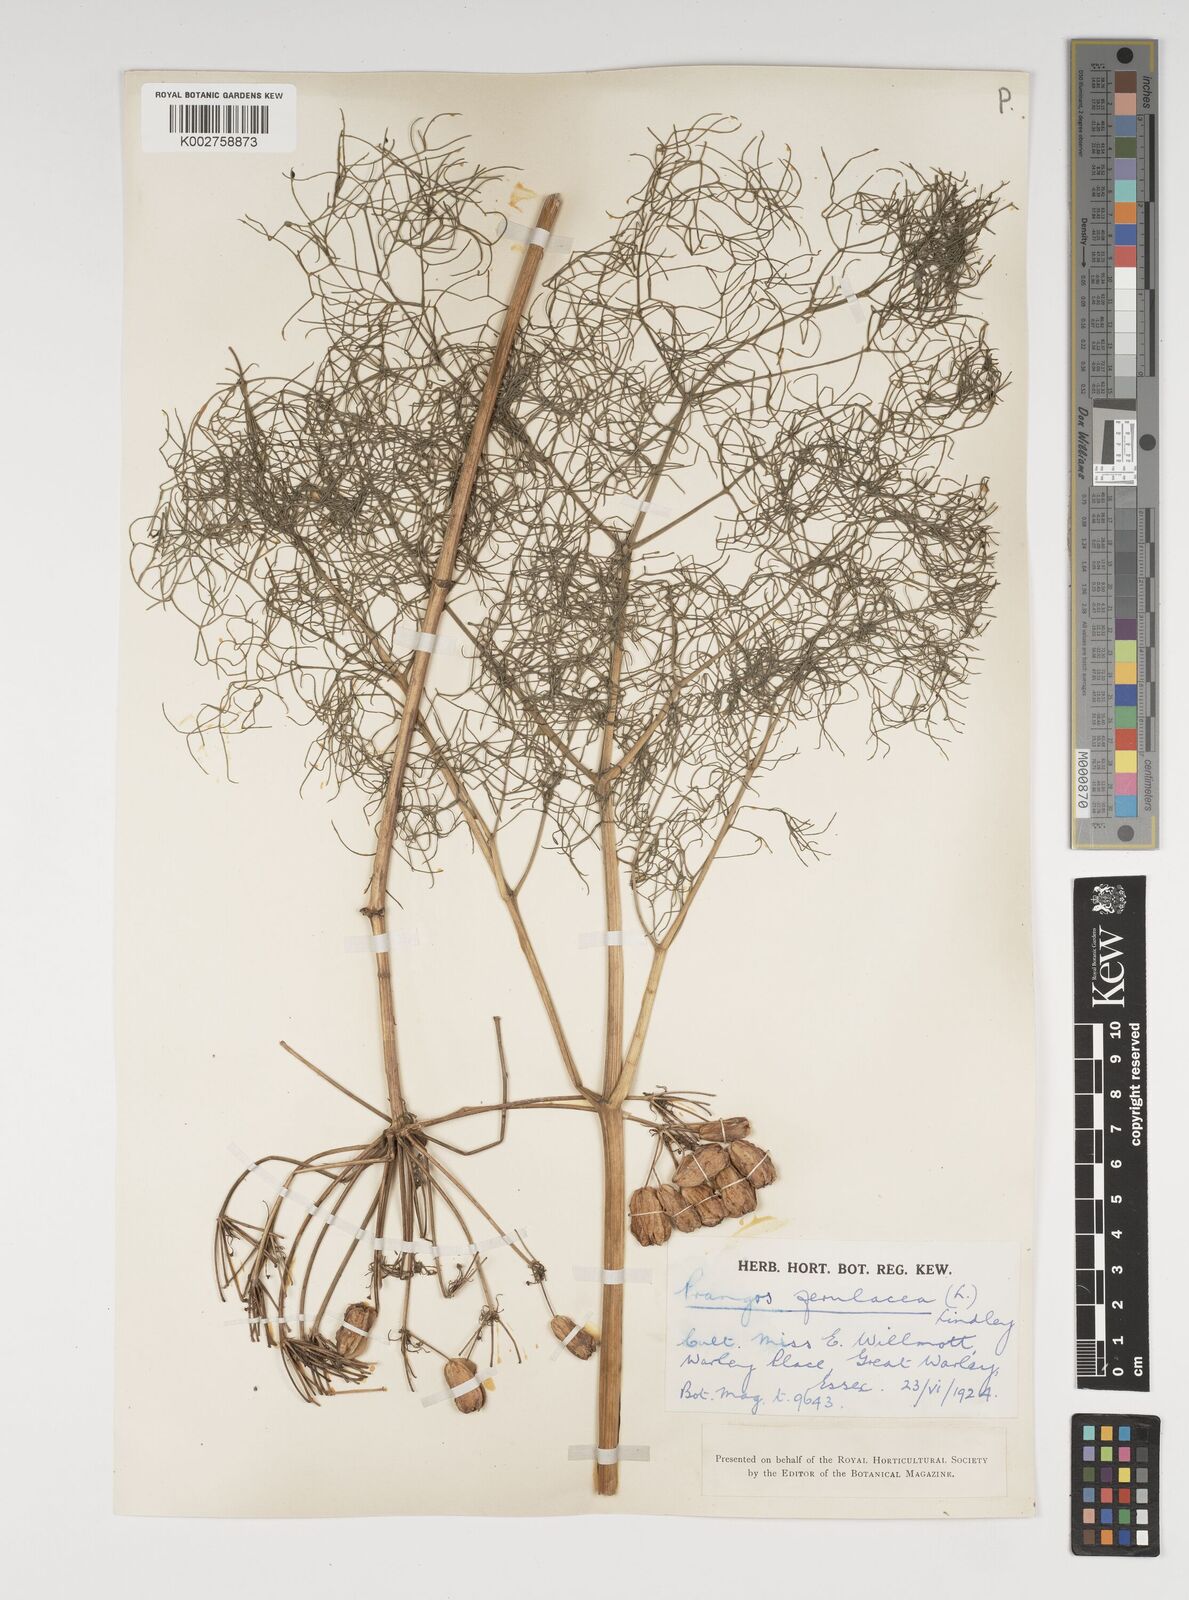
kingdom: Plantae
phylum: Tracheophyta
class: Magnoliopsida
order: Apiales
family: Apiaceae
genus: Prangos
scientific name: Prangos ferulacea
